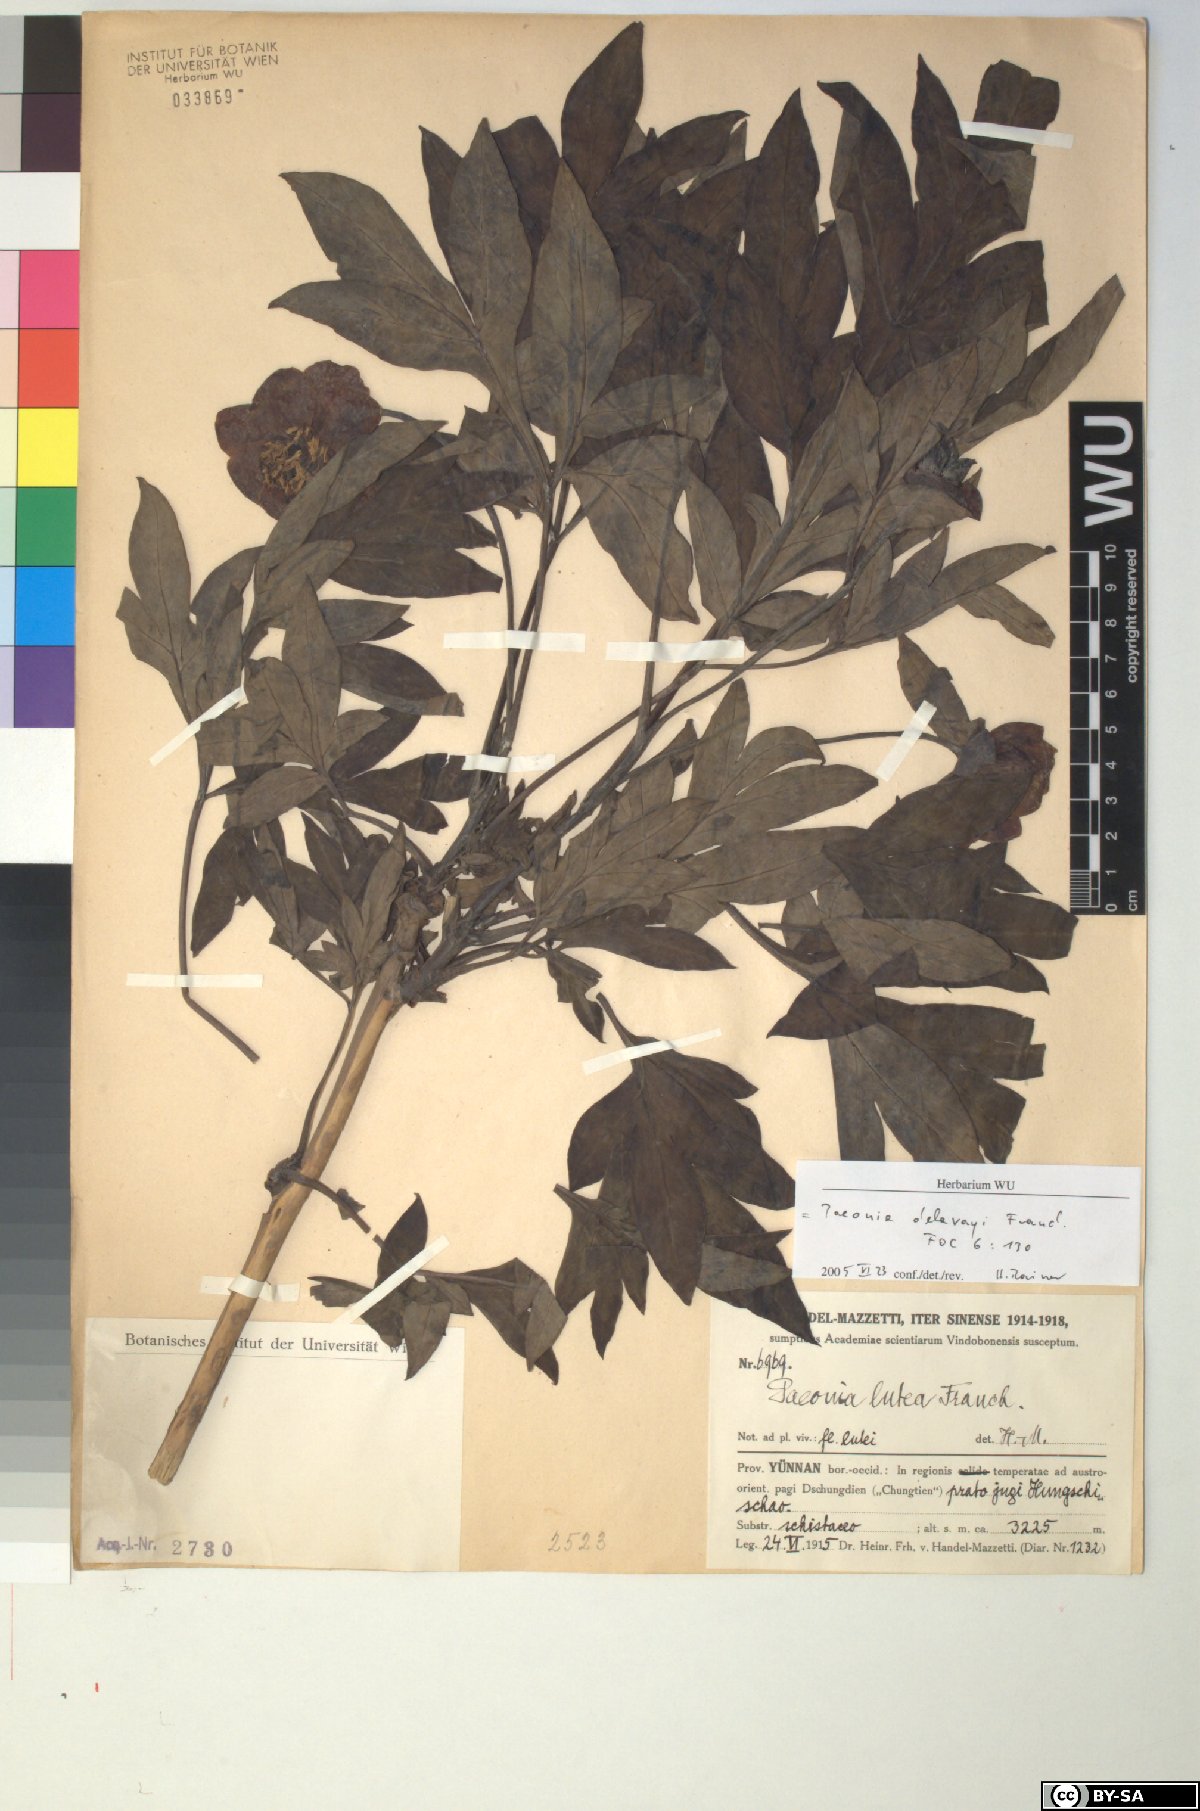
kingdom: Plantae
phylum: Tracheophyta
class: Magnoliopsida
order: Saxifragales
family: Paeoniaceae
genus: Paeonia
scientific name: Paeonia delavayi
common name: Dian mu dan
